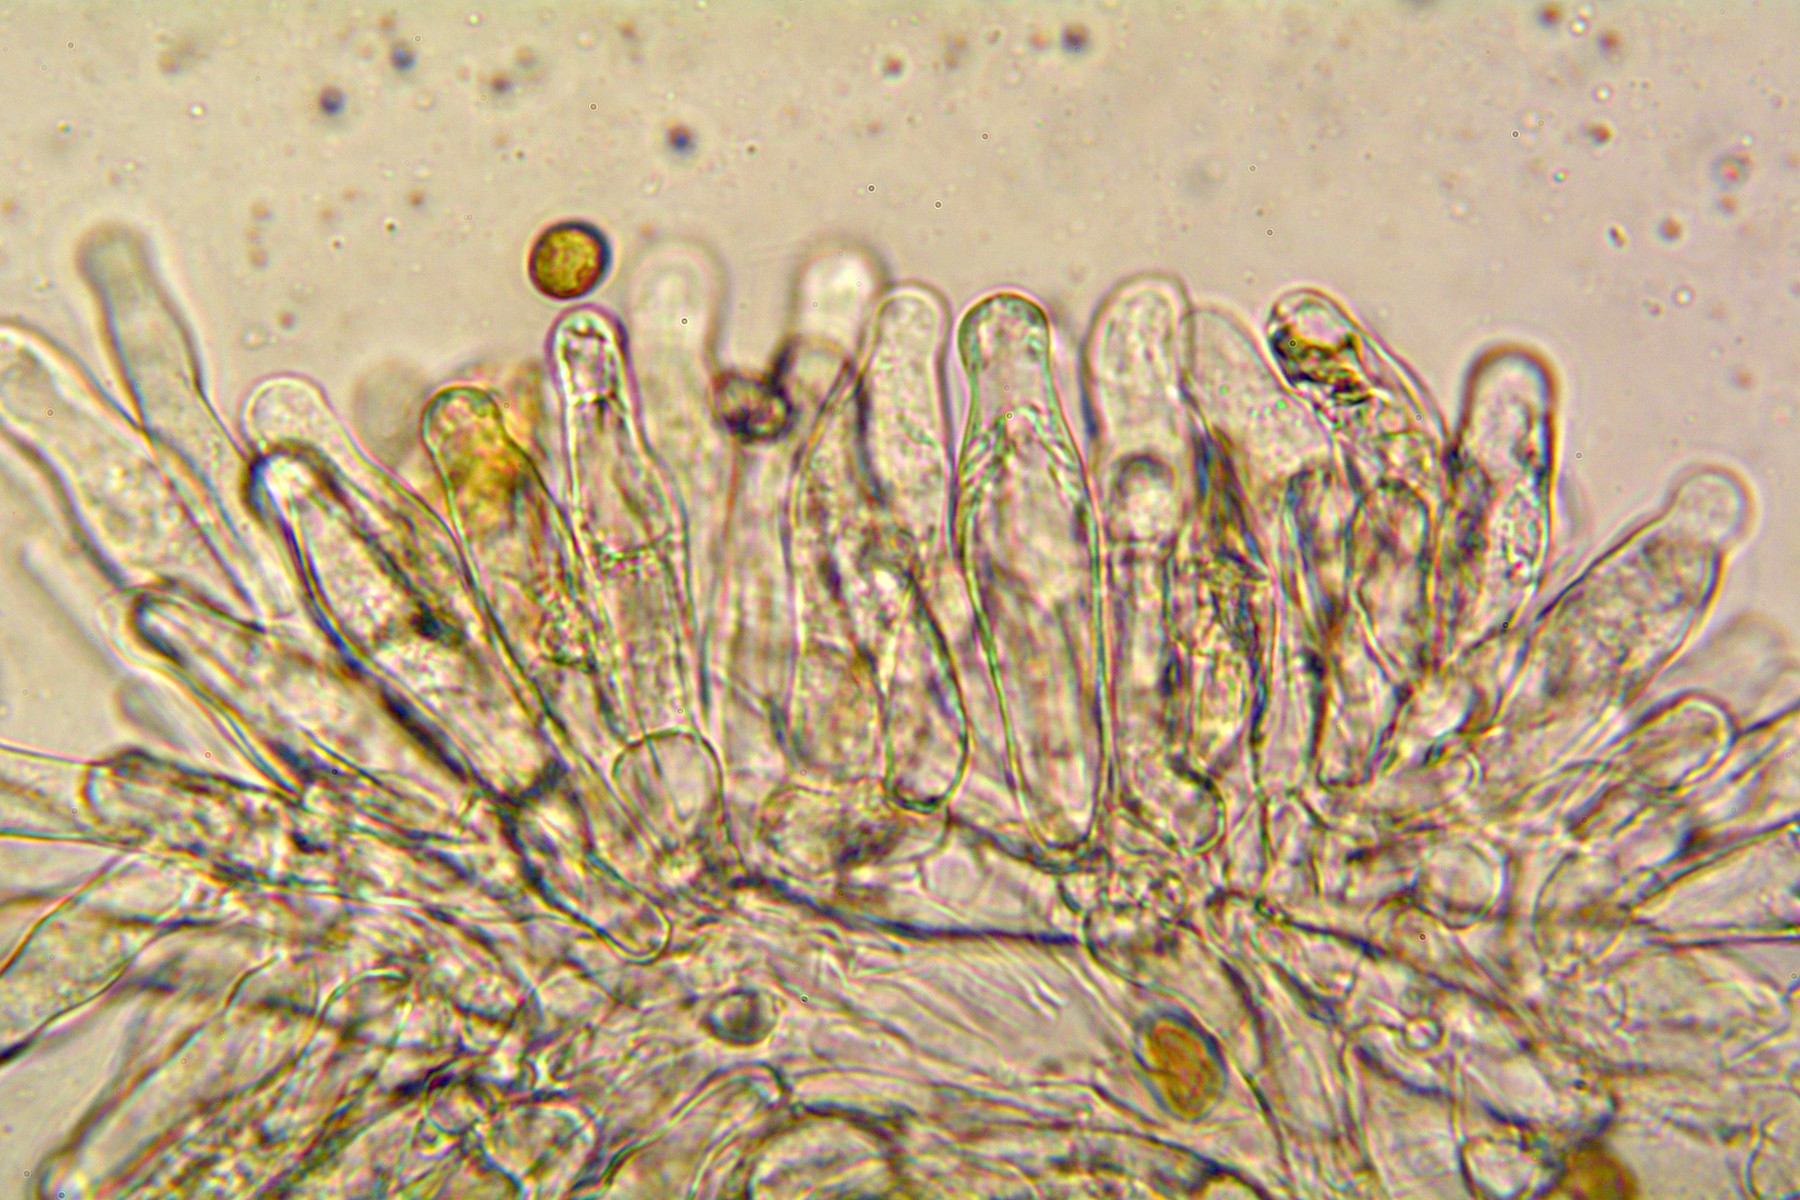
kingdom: Fungi
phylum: Basidiomycota
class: Agaricomycetes
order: Agaricales
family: Inocybaceae
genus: Pseudosperma
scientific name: Pseudosperma perlatum
